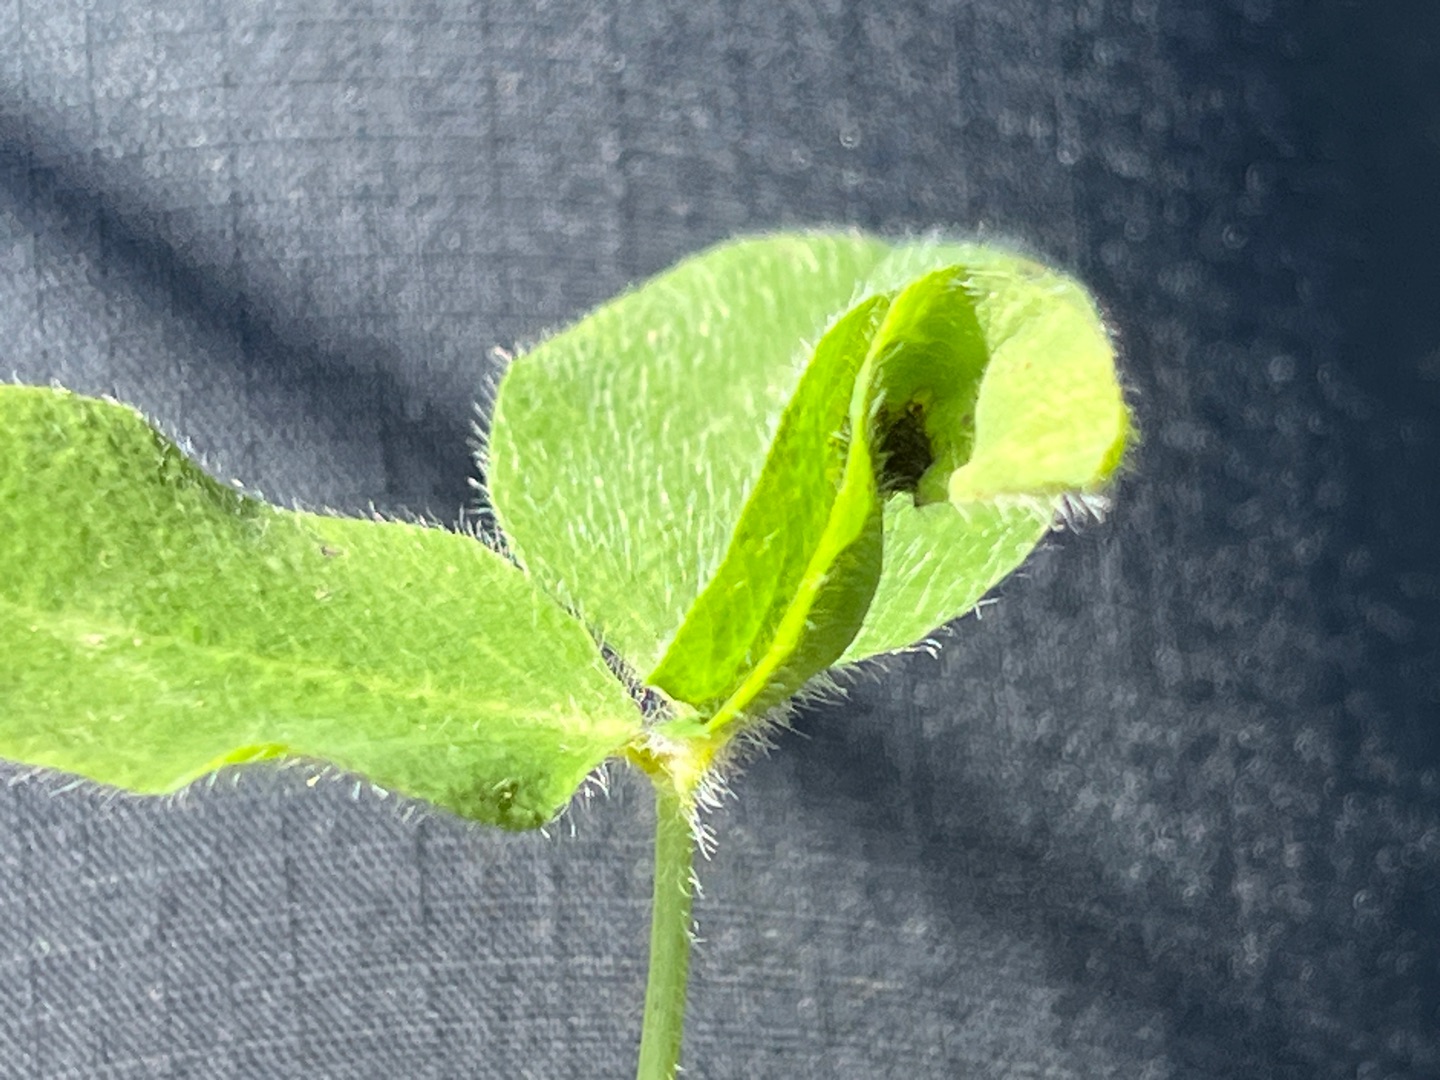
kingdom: Animalia
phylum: Arthropoda
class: Insecta
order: Diptera
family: Cecidomyiidae
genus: Tricholaba
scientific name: Tricholaba trifolii
